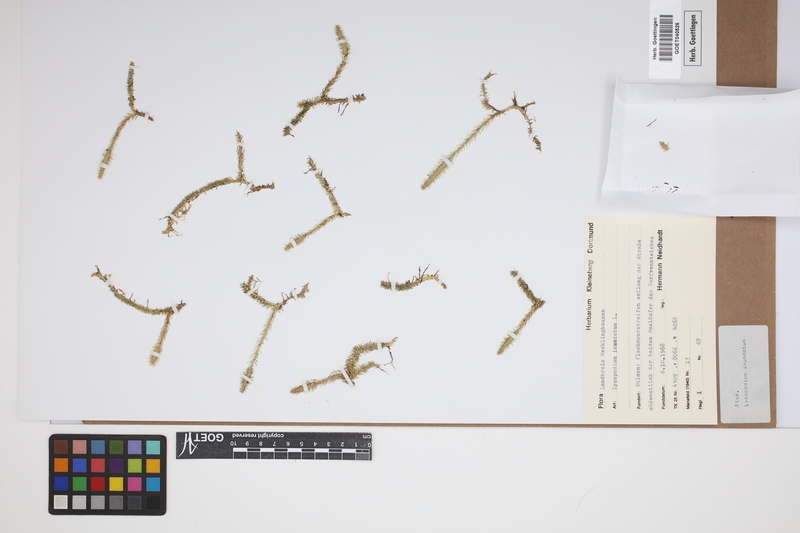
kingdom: Plantae
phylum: Tracheophyta
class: Lycopodiopsida
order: Lycopodiales
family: Lycopodiaceae
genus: Lycopodiella
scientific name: Lycopodiella inundata
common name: Marsh clubmoss
